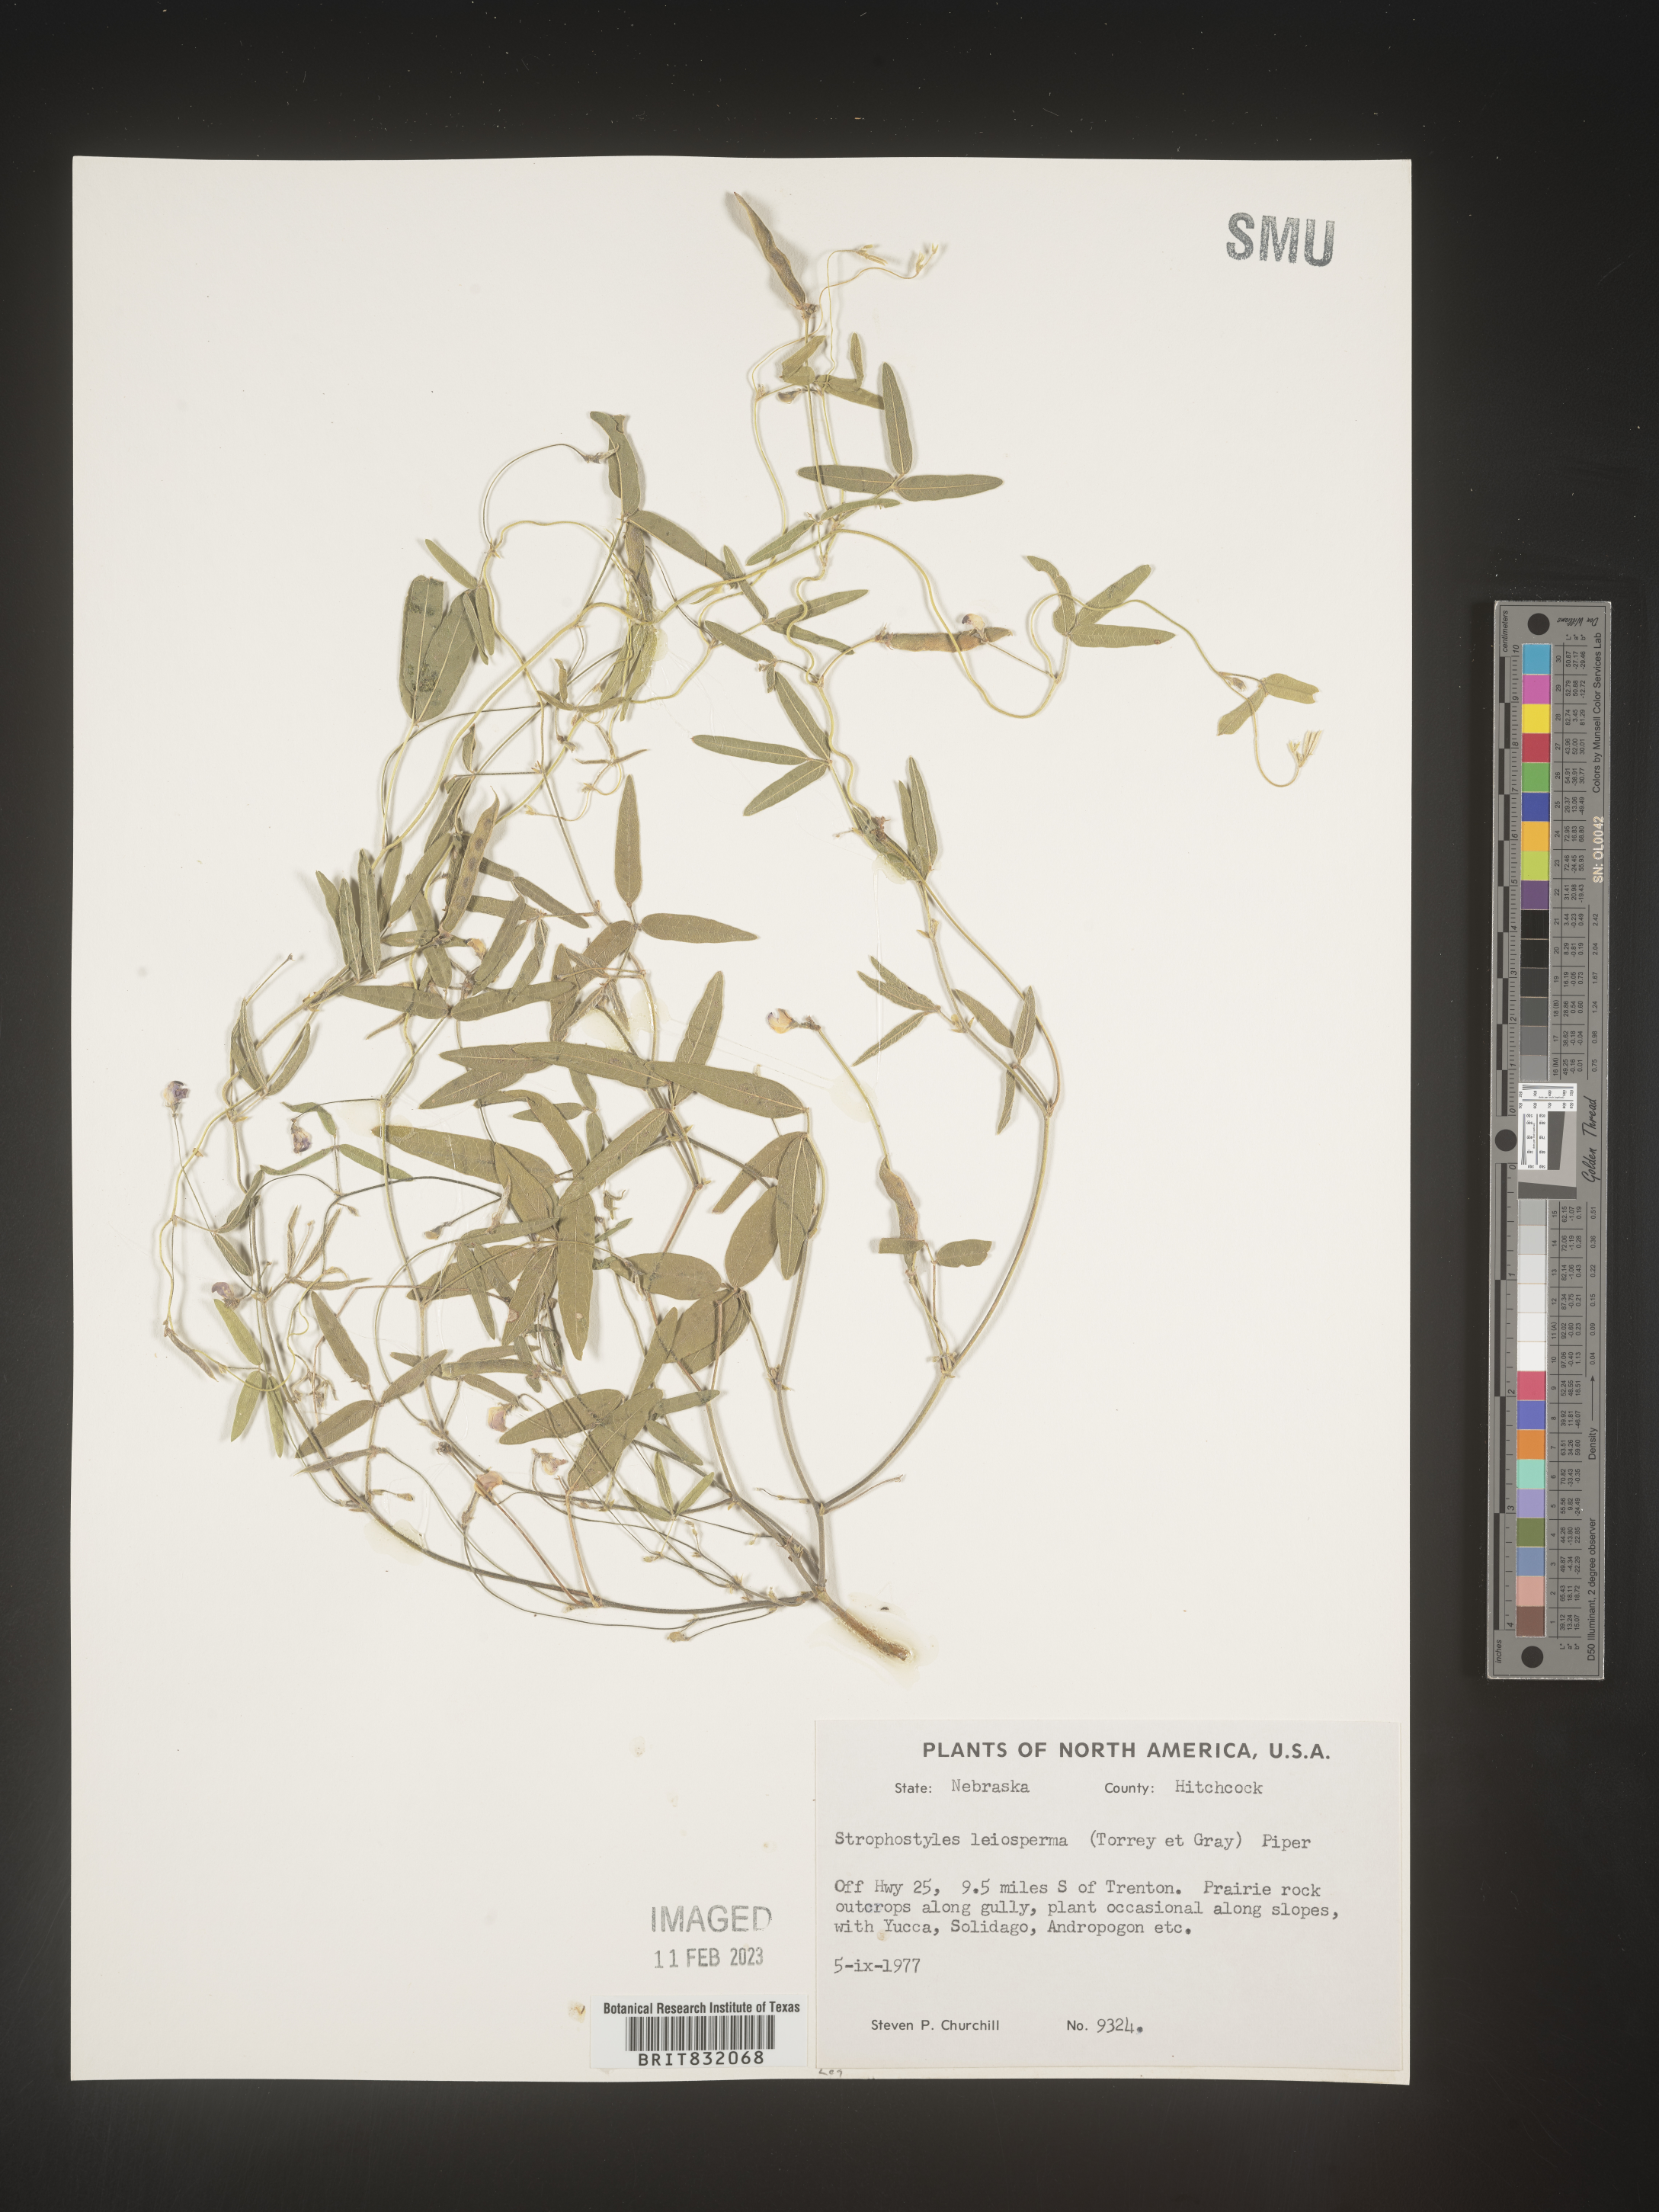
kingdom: Plantae
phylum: Tracheophyta
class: Magnoliopsida
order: Fabales
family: Fabaceae
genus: Strophostyles
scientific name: Strophostyles leiosperma
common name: Smooth-seed wild bean
